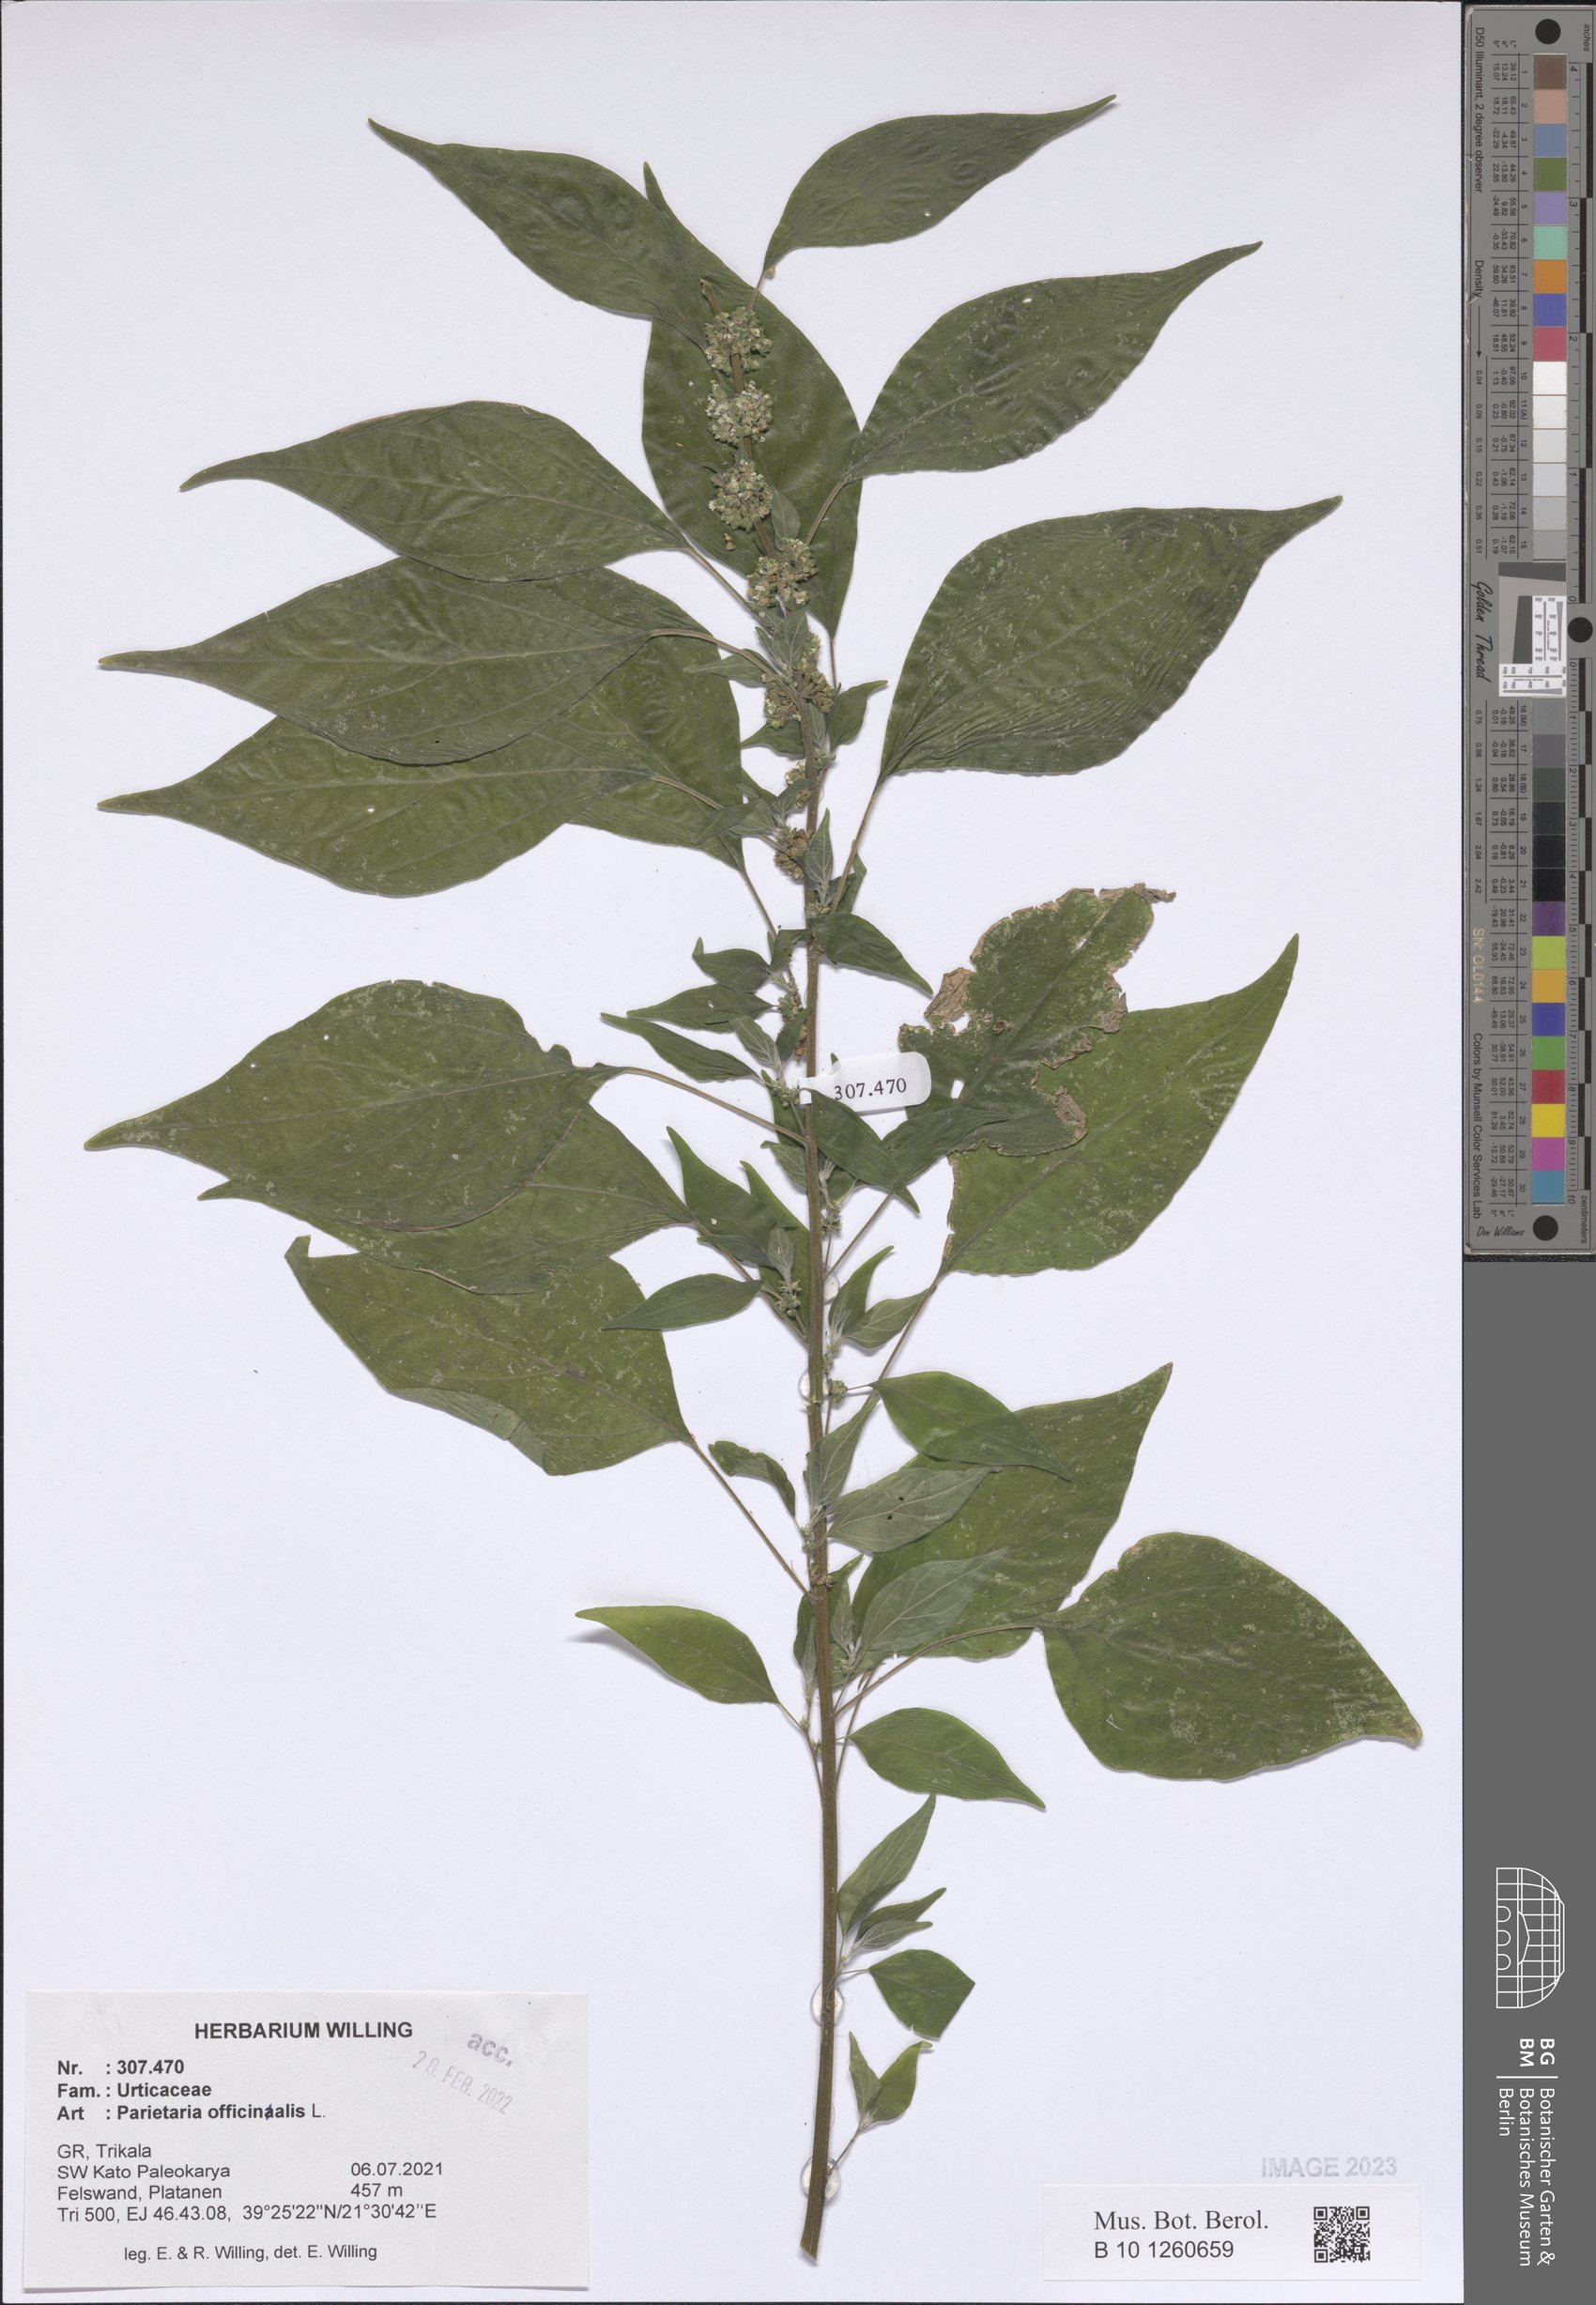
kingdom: Plantae
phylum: Tracheophyta
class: Magnoliopsida
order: Rosales
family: Urticaceae
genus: Parietaria
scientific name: Parietaria officinalis
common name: Eastern pellitory-of-the-wall
